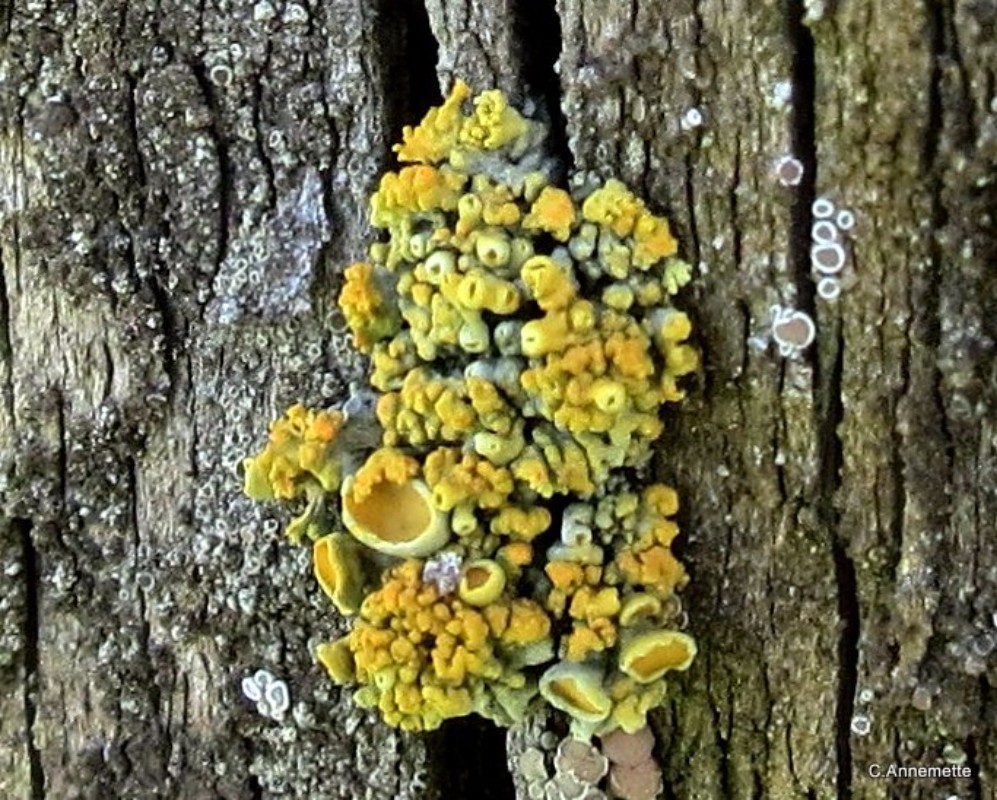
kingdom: Fungi
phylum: Ascomycota
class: Lecanoromycetes
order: Teloschistales
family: Teloschistaceae
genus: Polycauliona
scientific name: Polycauliona polycarpa
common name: mangefrugtet orangelav
